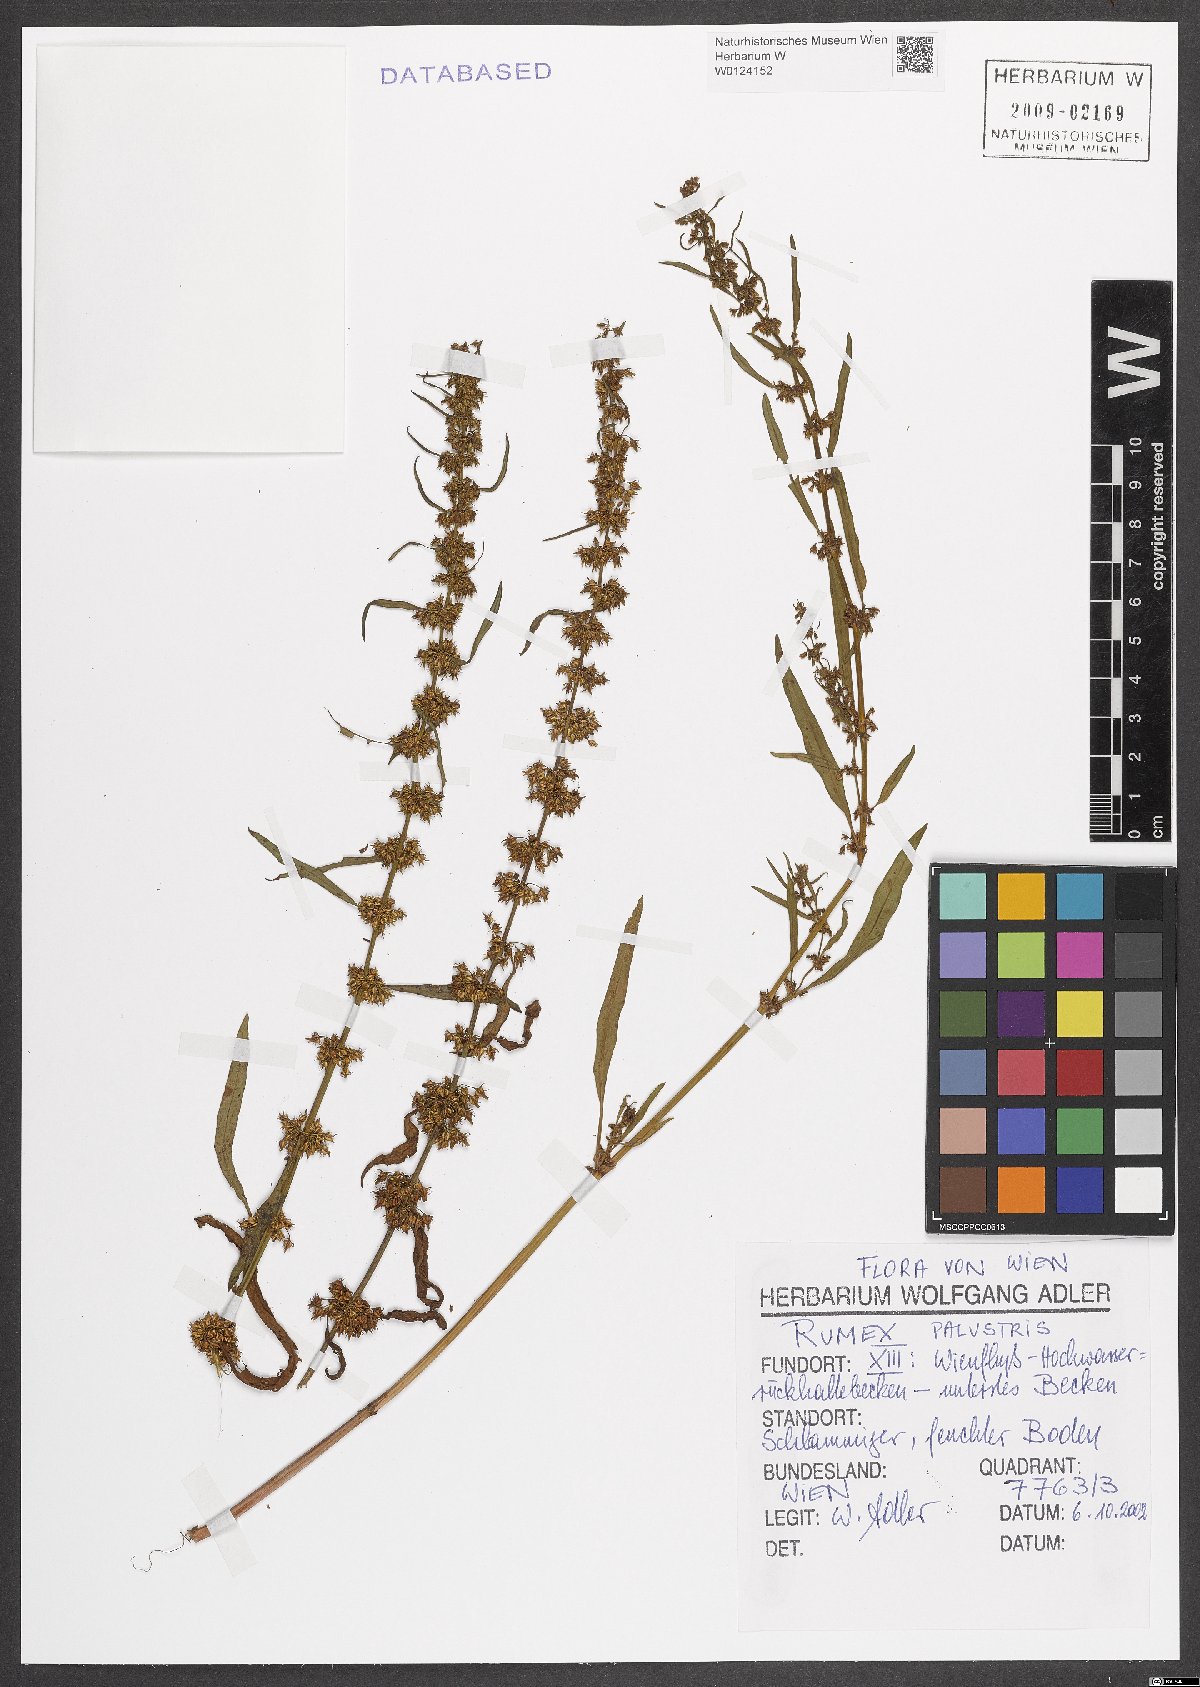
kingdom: Plantae
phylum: Tracheophyta
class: Magnoliopsida
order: Caryophyllales
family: Polygonaceae
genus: Rumex
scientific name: Rumex palustris
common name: Marsh dock
